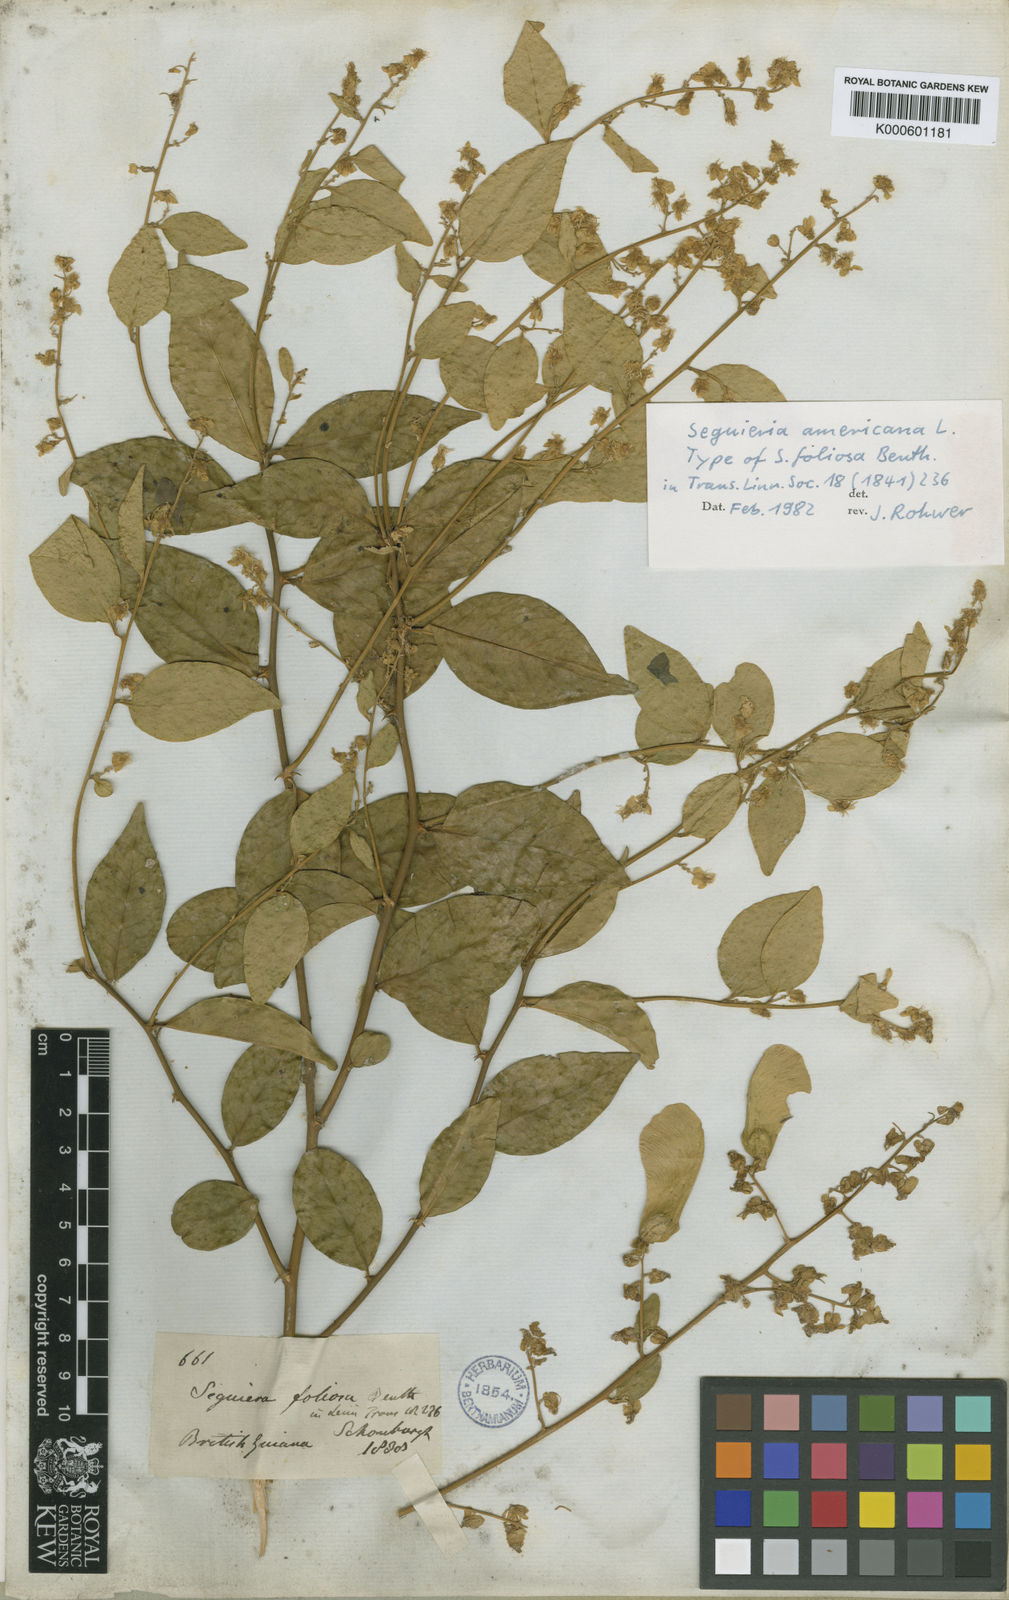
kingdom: Plantae
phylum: Tracheophyta
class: Magnoliopsida
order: Caryophyllales
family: Phytolaccaceae
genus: Seguieria
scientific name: Seguieria americana
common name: American seguieria
